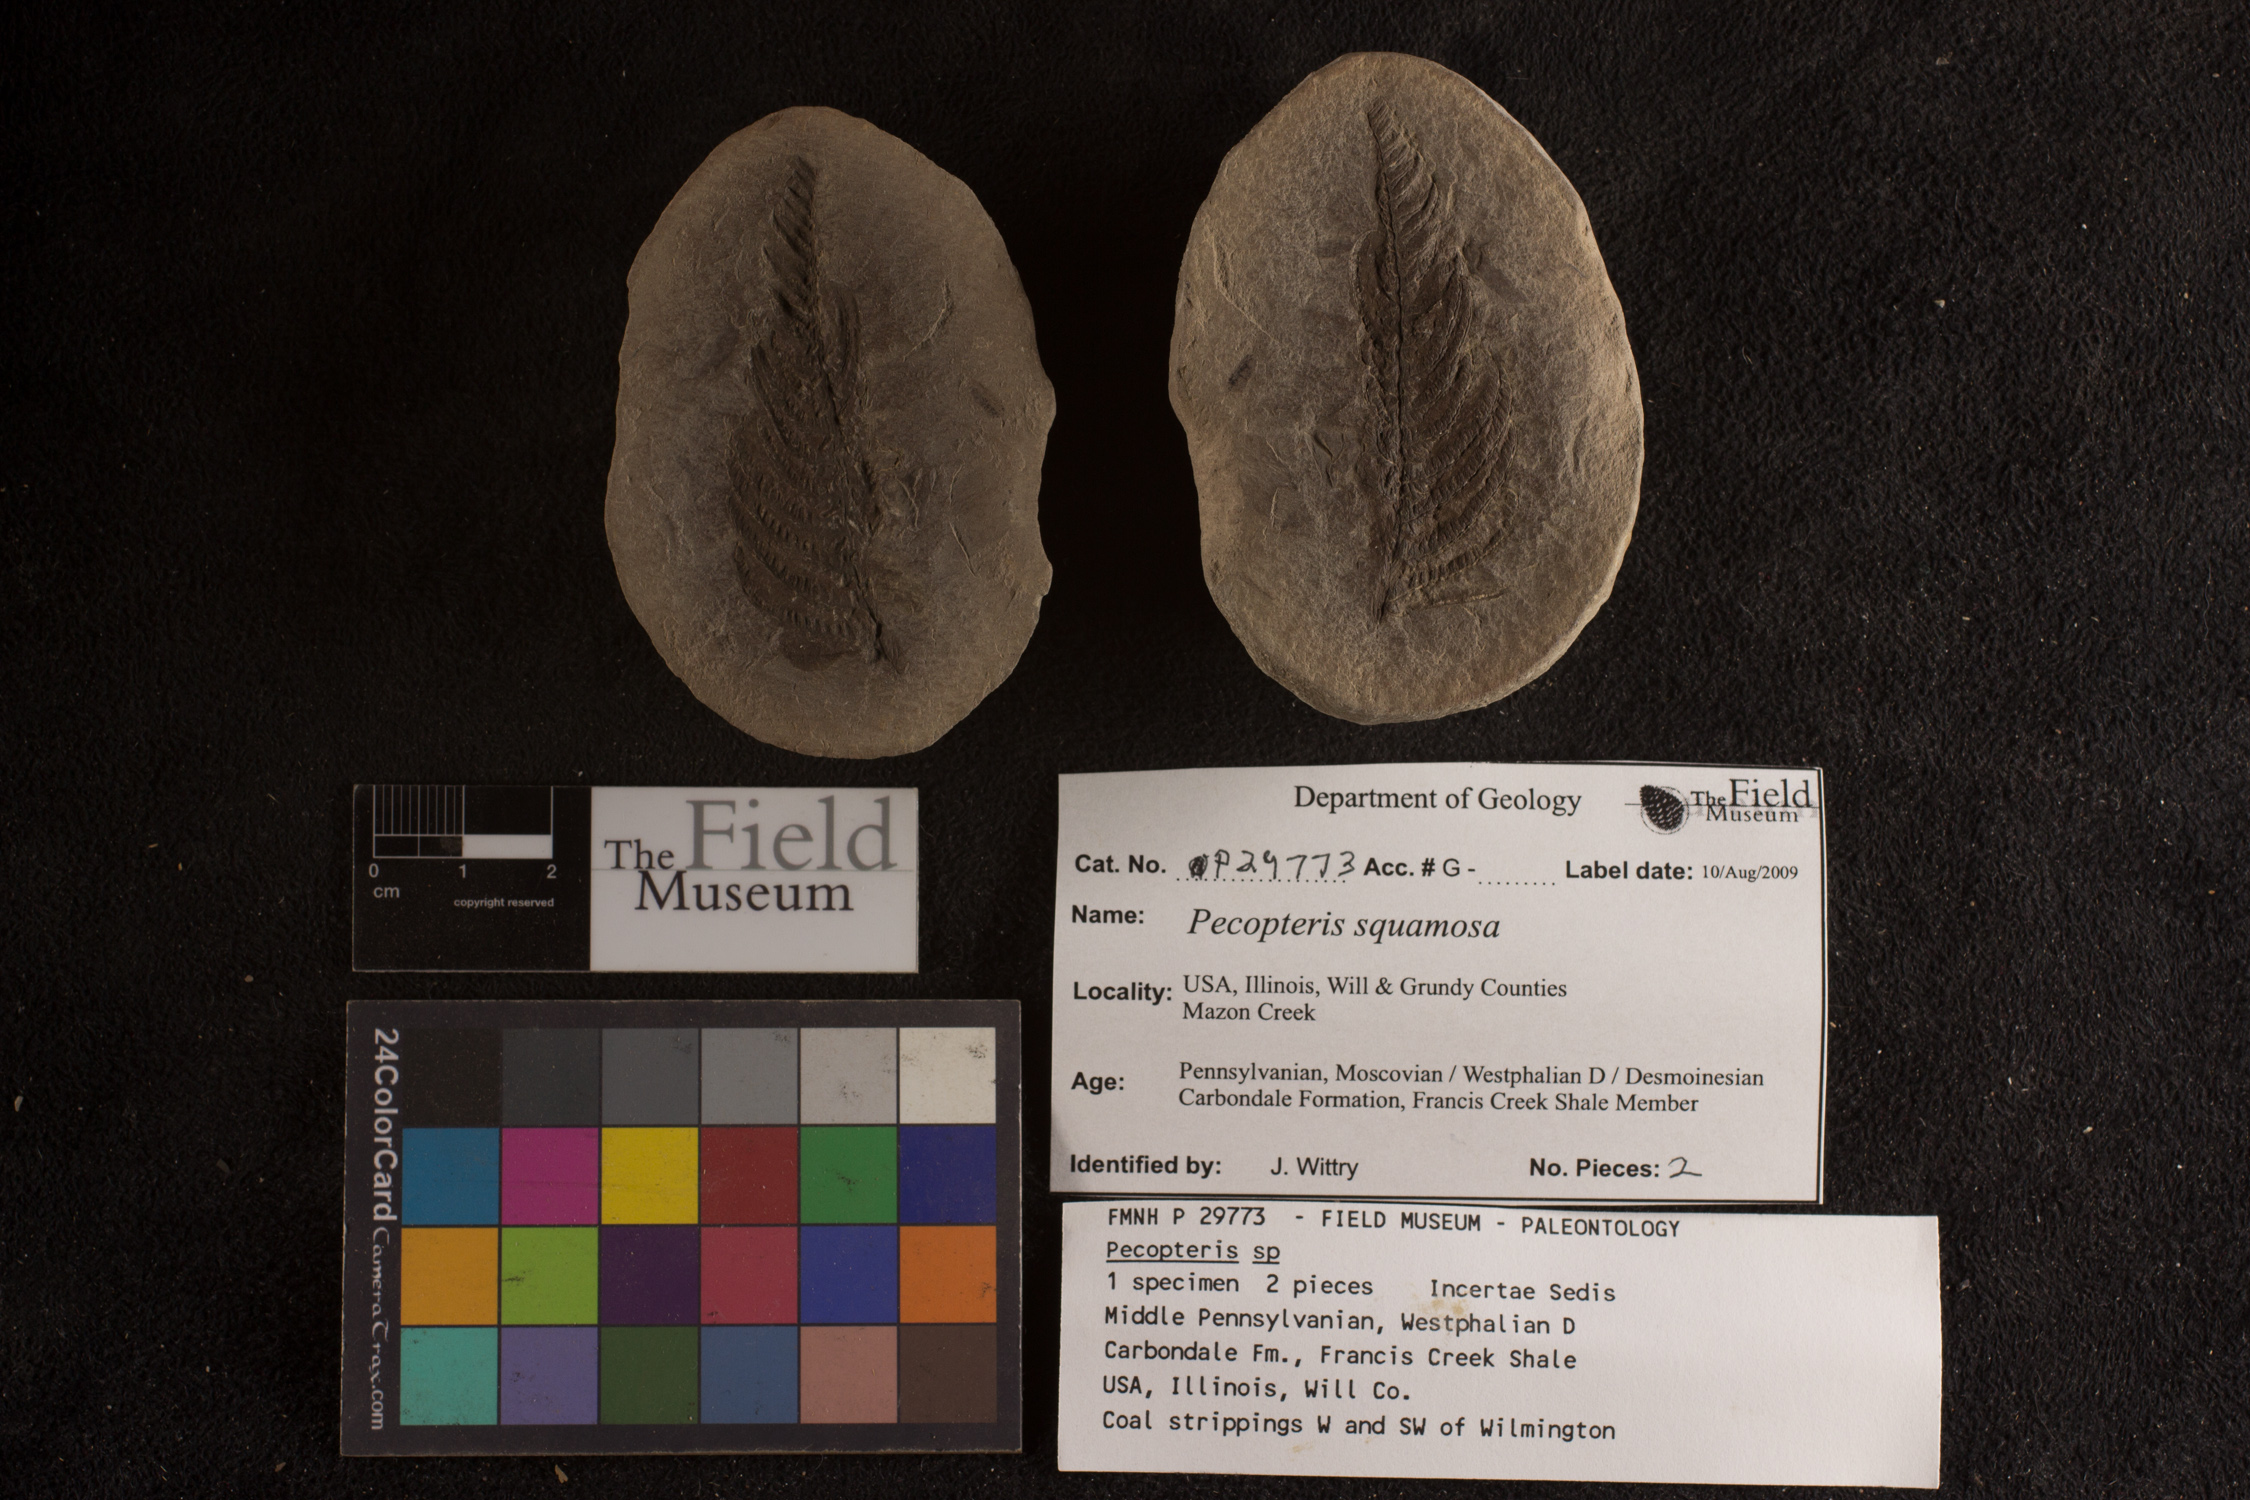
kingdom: Plantae
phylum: Tracheophyta
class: Polypodiopsida
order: Marattiales
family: Asterothecaceae
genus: Pecopteris
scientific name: Pecopteris
